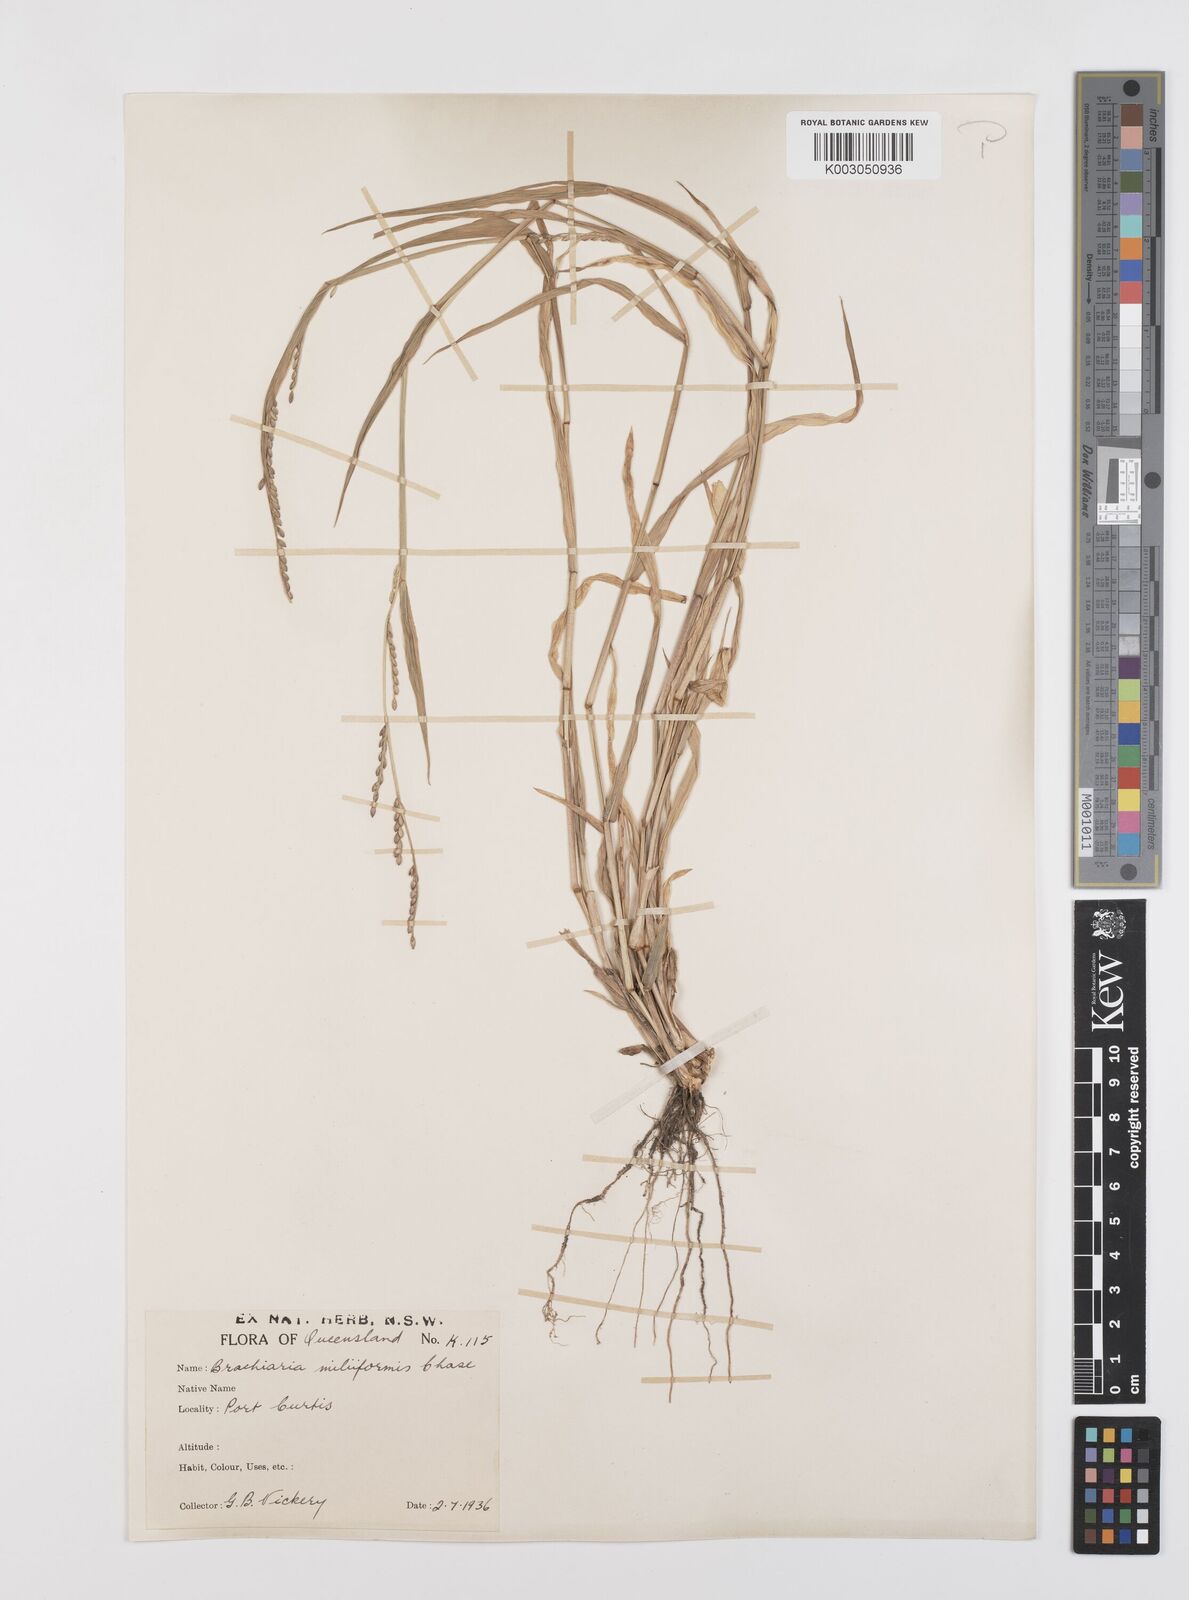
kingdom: Plantae
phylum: Tracheophyta
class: Liliopsida
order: Poales
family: Poaceae
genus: Urochloa
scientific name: Urochloa subquadripara
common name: Armgrass millet
